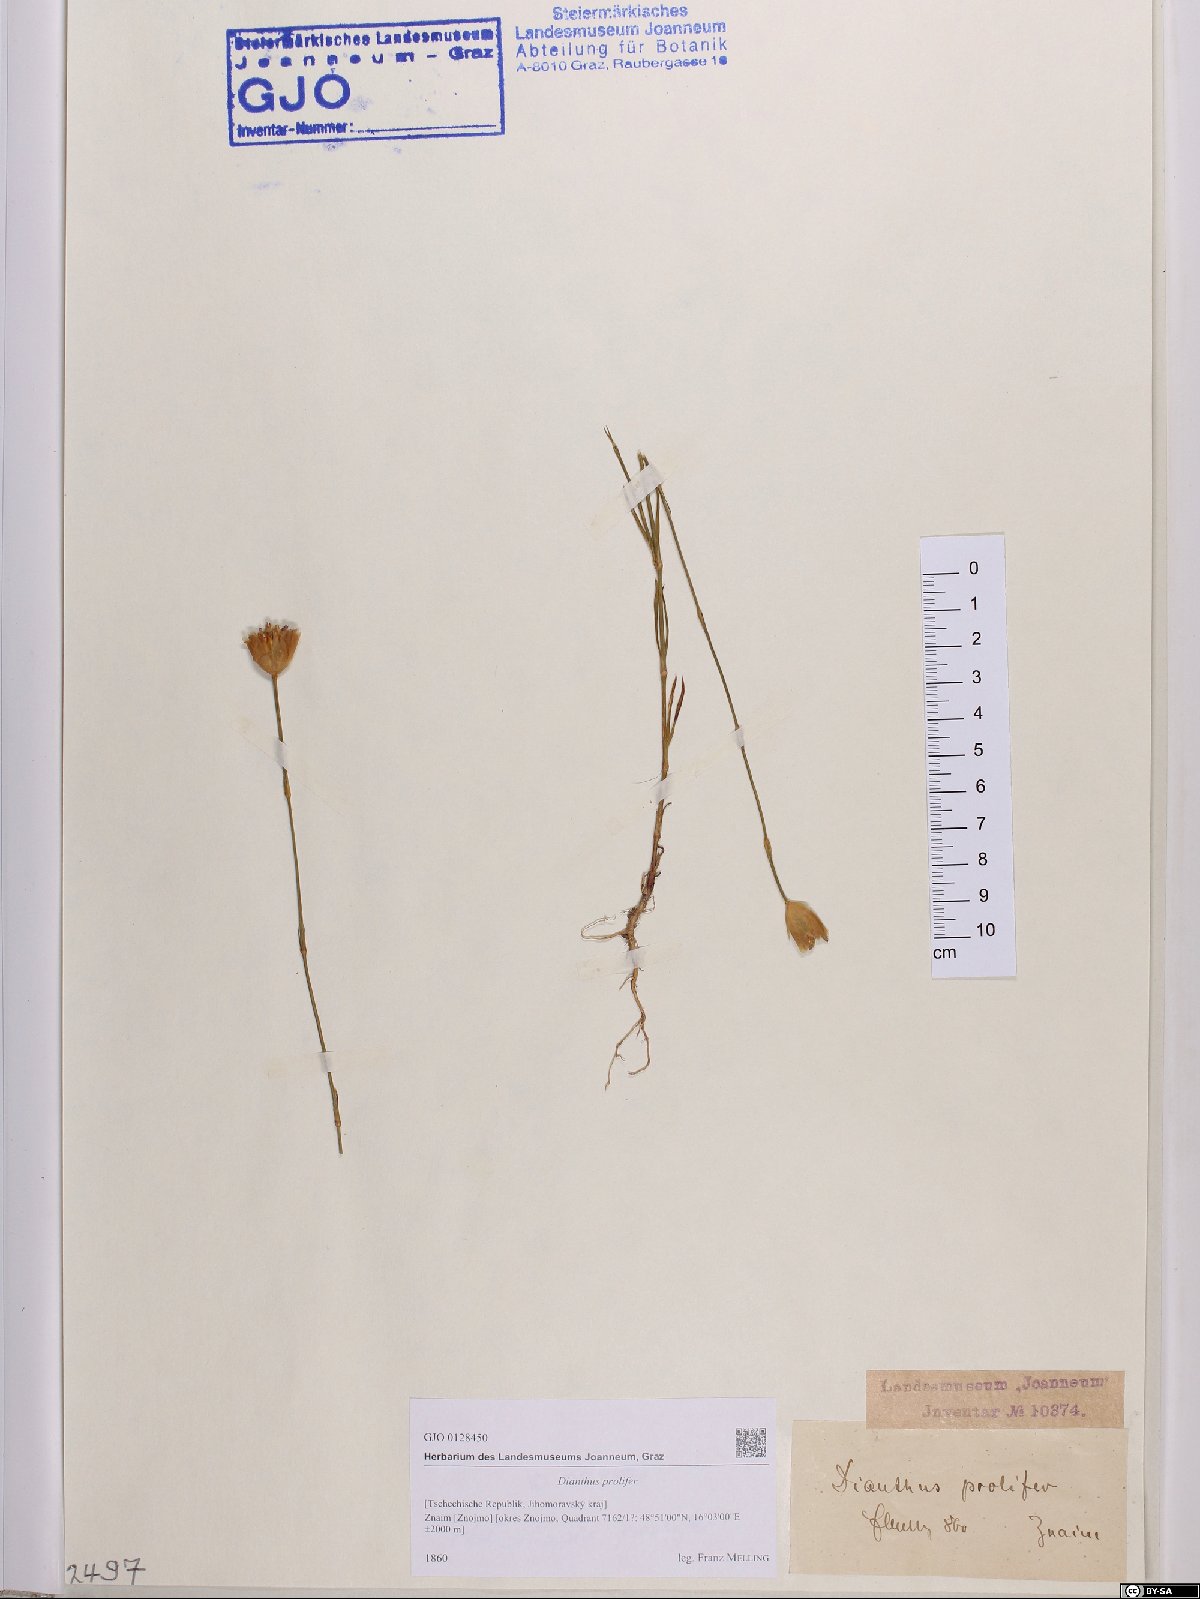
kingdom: Plantae
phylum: Tracheophyta
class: Magnoliopsida
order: Caryophyllales
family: Caryophyllaceae
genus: Petrorhagia
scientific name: Petrorhagia prolifera
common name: Proliferous pink
